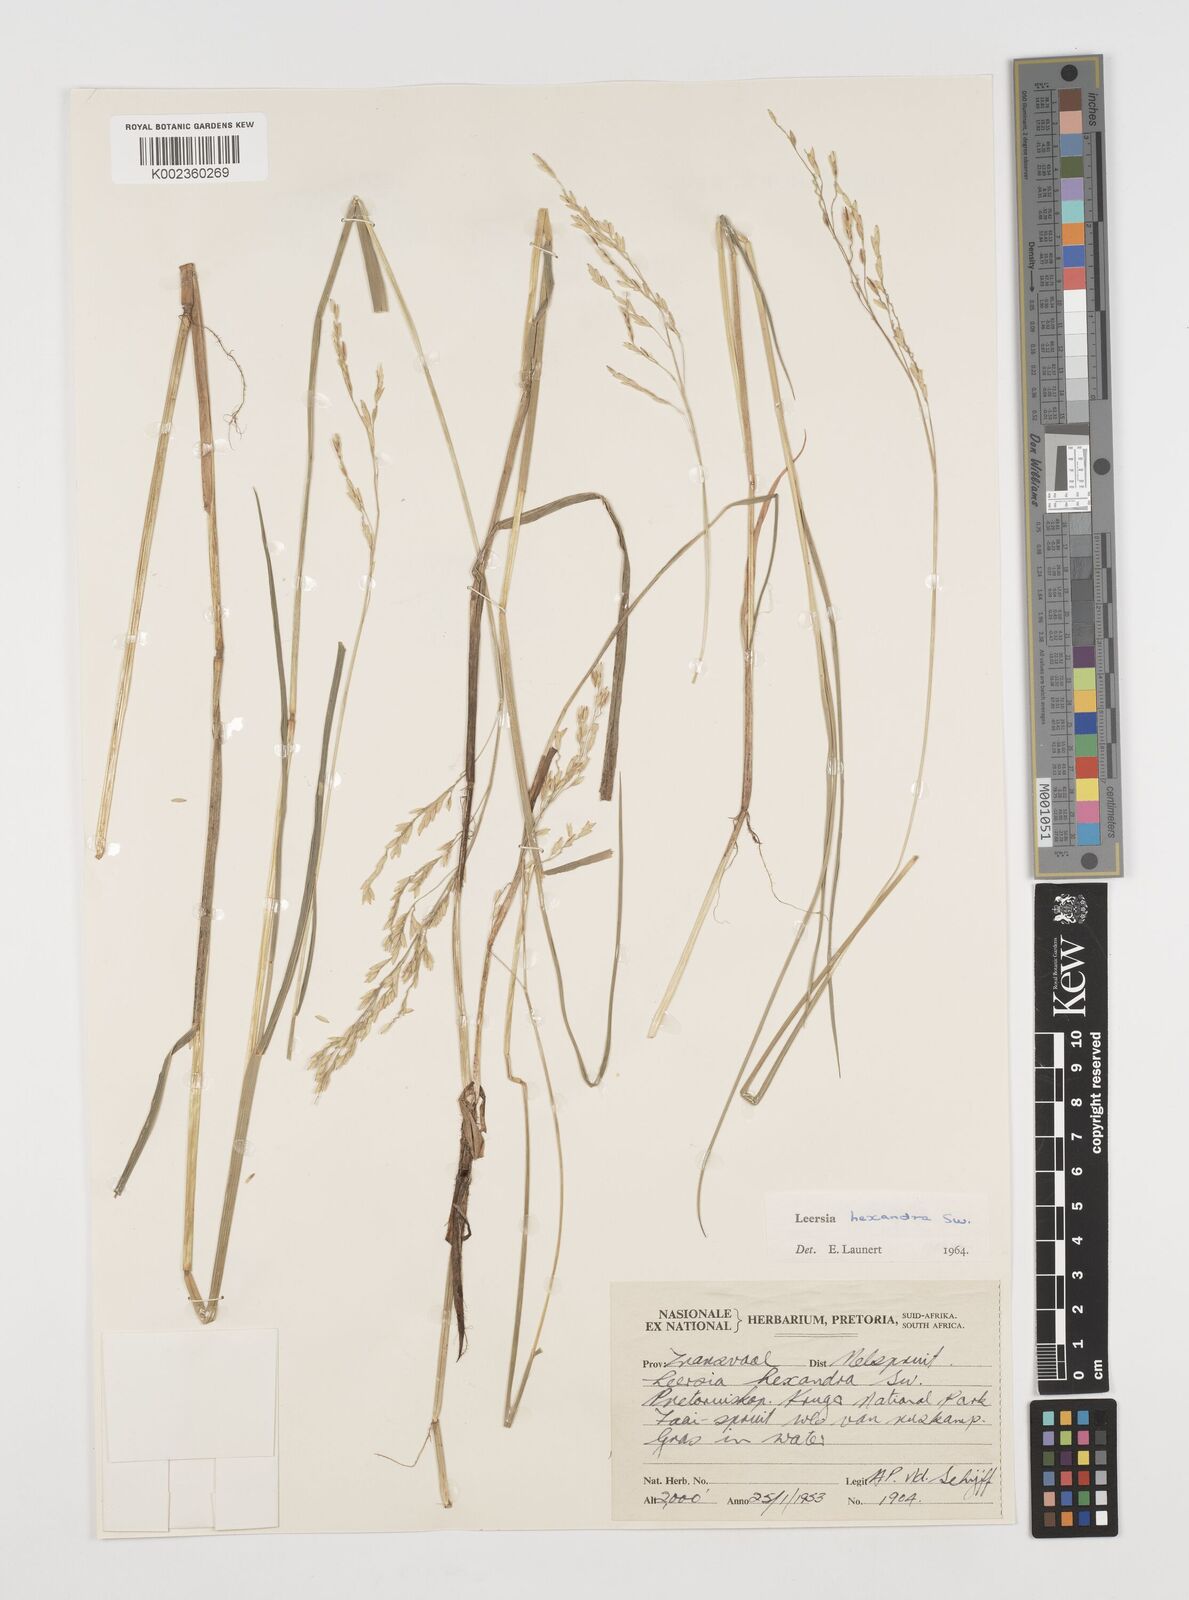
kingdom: Plantae
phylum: Tracheophyta
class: Liliopsida
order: Poales
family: Poaceae
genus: Leersia
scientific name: Leersia hexandra
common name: Southern cut grass
